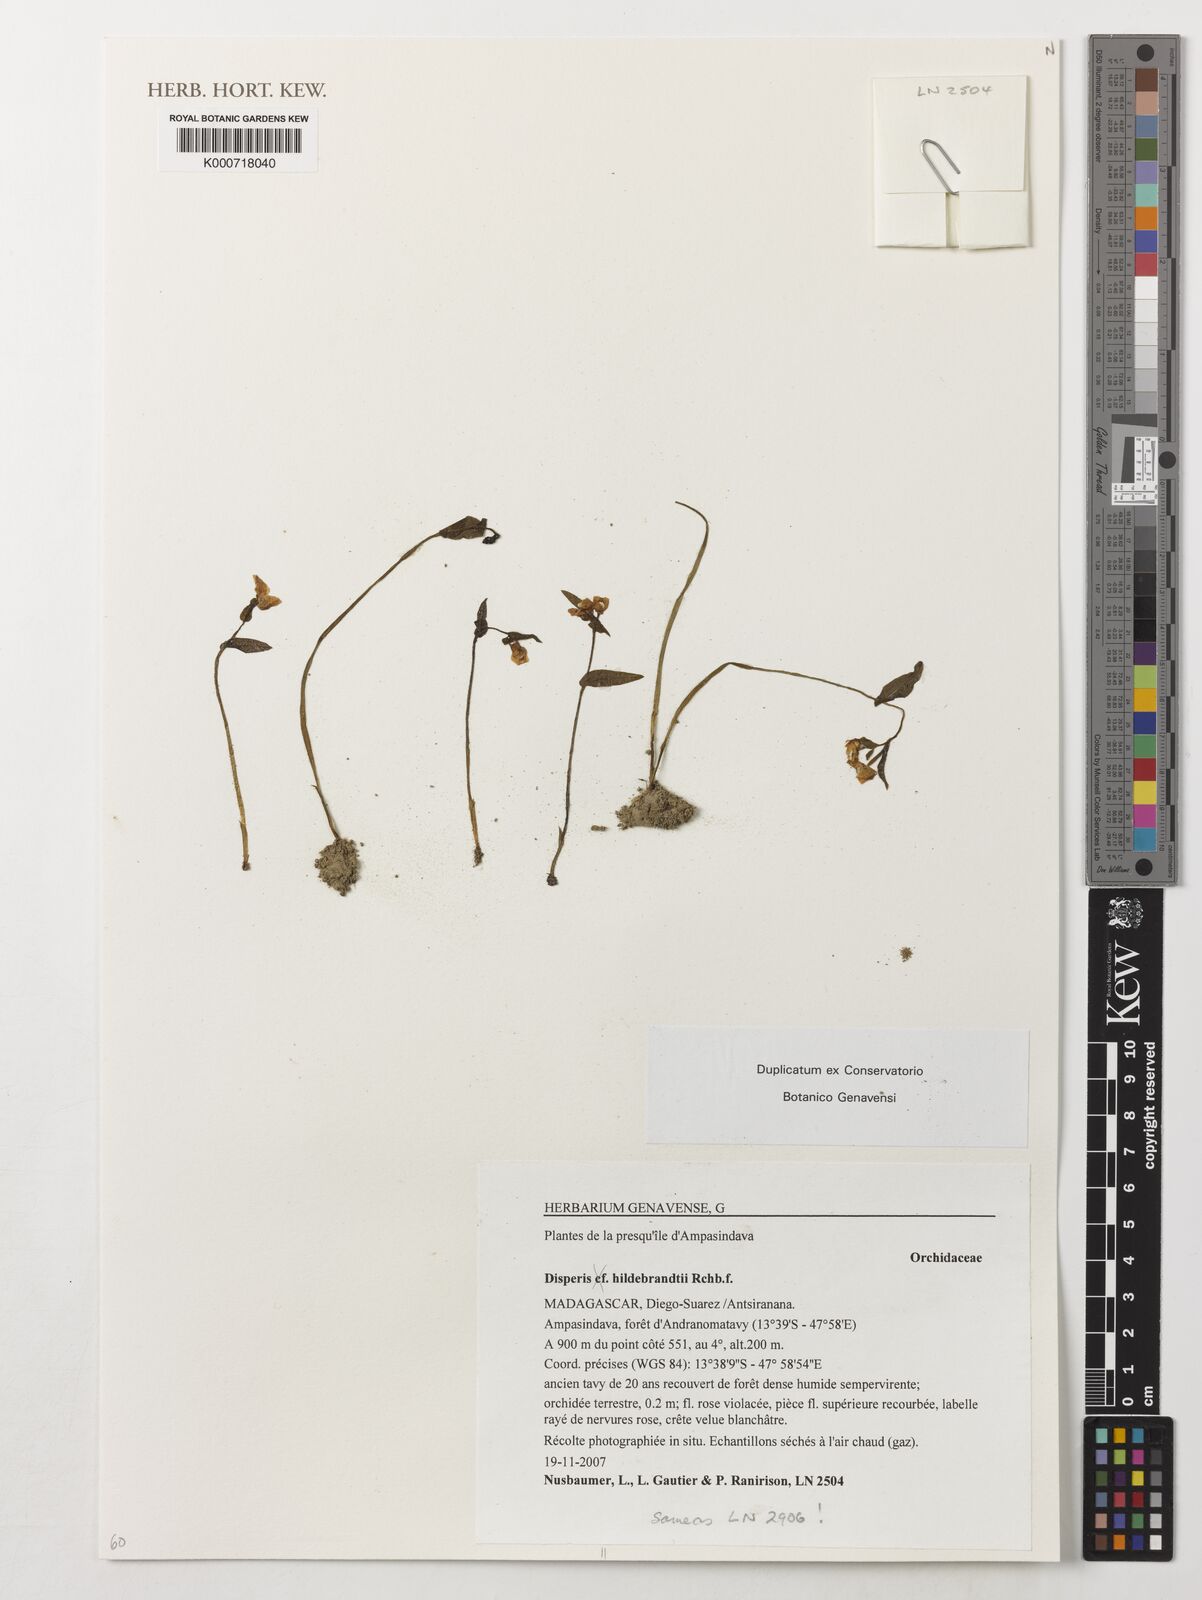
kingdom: Plantae
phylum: Tracheophyta
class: Liliopsida
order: Asparagales
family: Orchidaceae
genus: Disperis
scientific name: Disperis hildebrandtii
